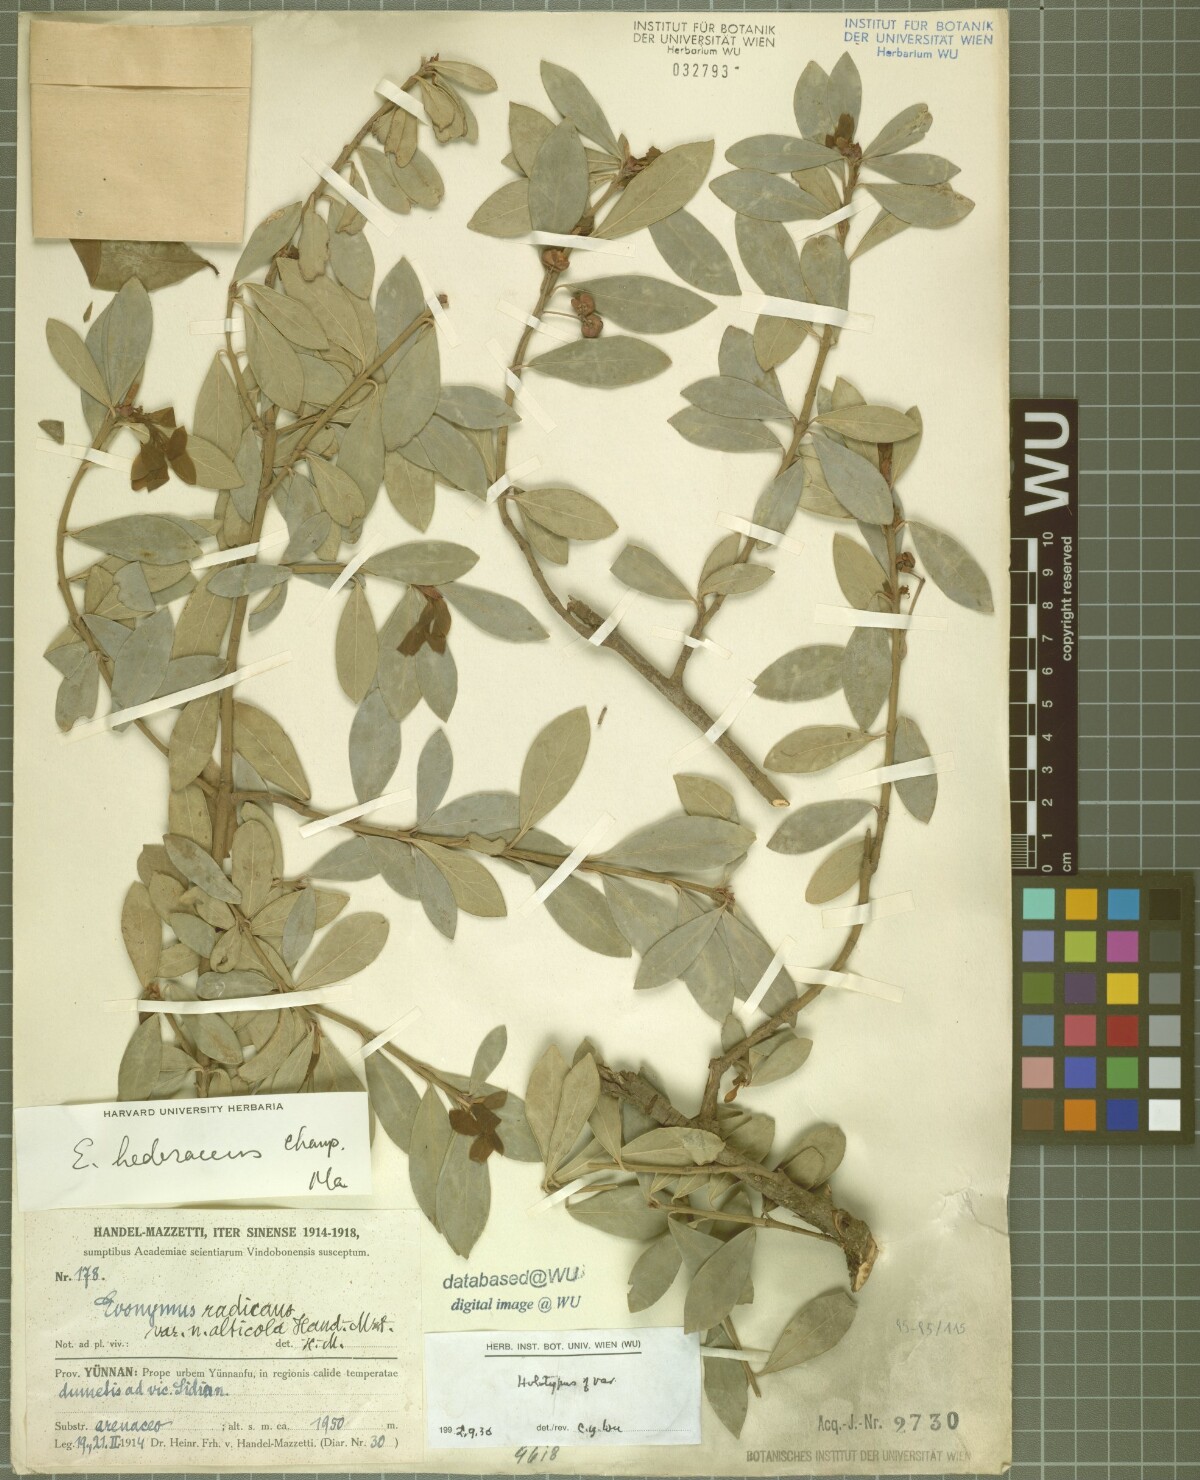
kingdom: Plantae
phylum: Tracheophyta
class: Magnoliopsida
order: Celastrales
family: Celastraceae
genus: Euonymus
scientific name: Euonymus fortunei
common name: Climbing euonymus
